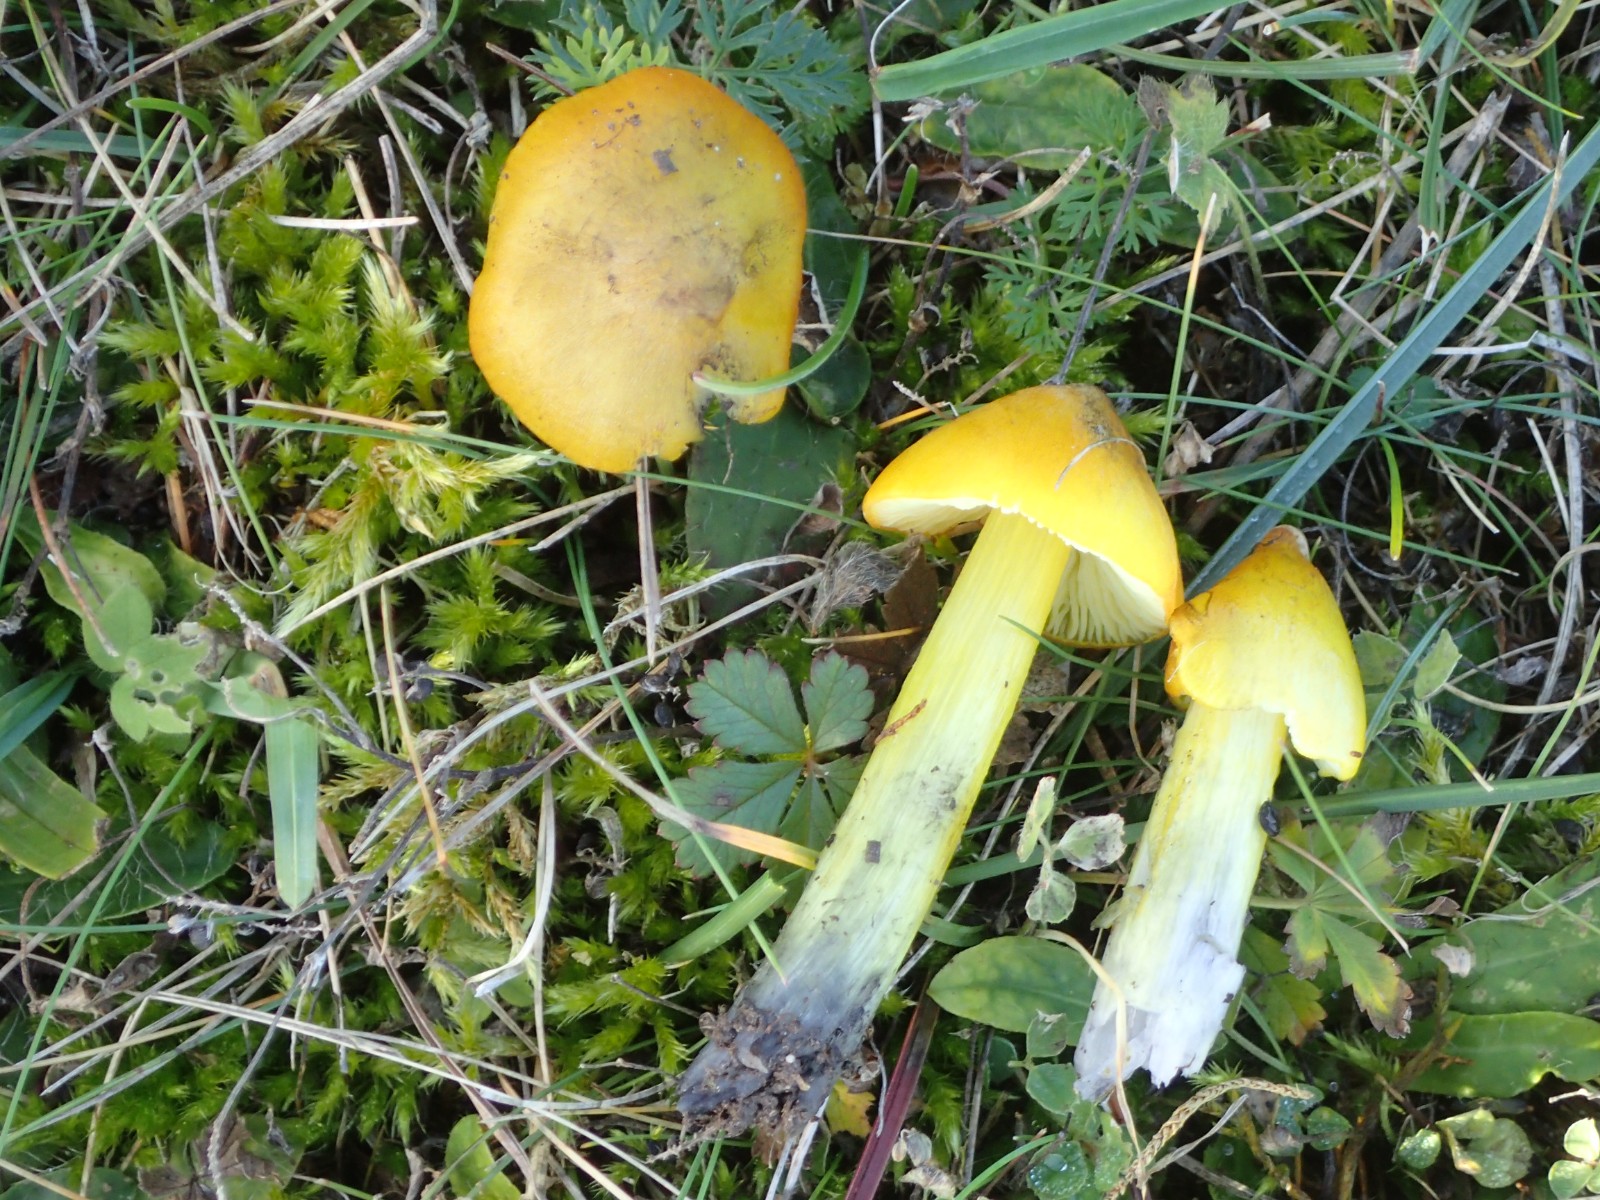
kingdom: Fungi
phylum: Basidiomycota
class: Agaricomycetes
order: Agaricales
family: Hygrophoraceae
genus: Hygrocybe
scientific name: Hygrocybe conica
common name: Blackening wax-cap
